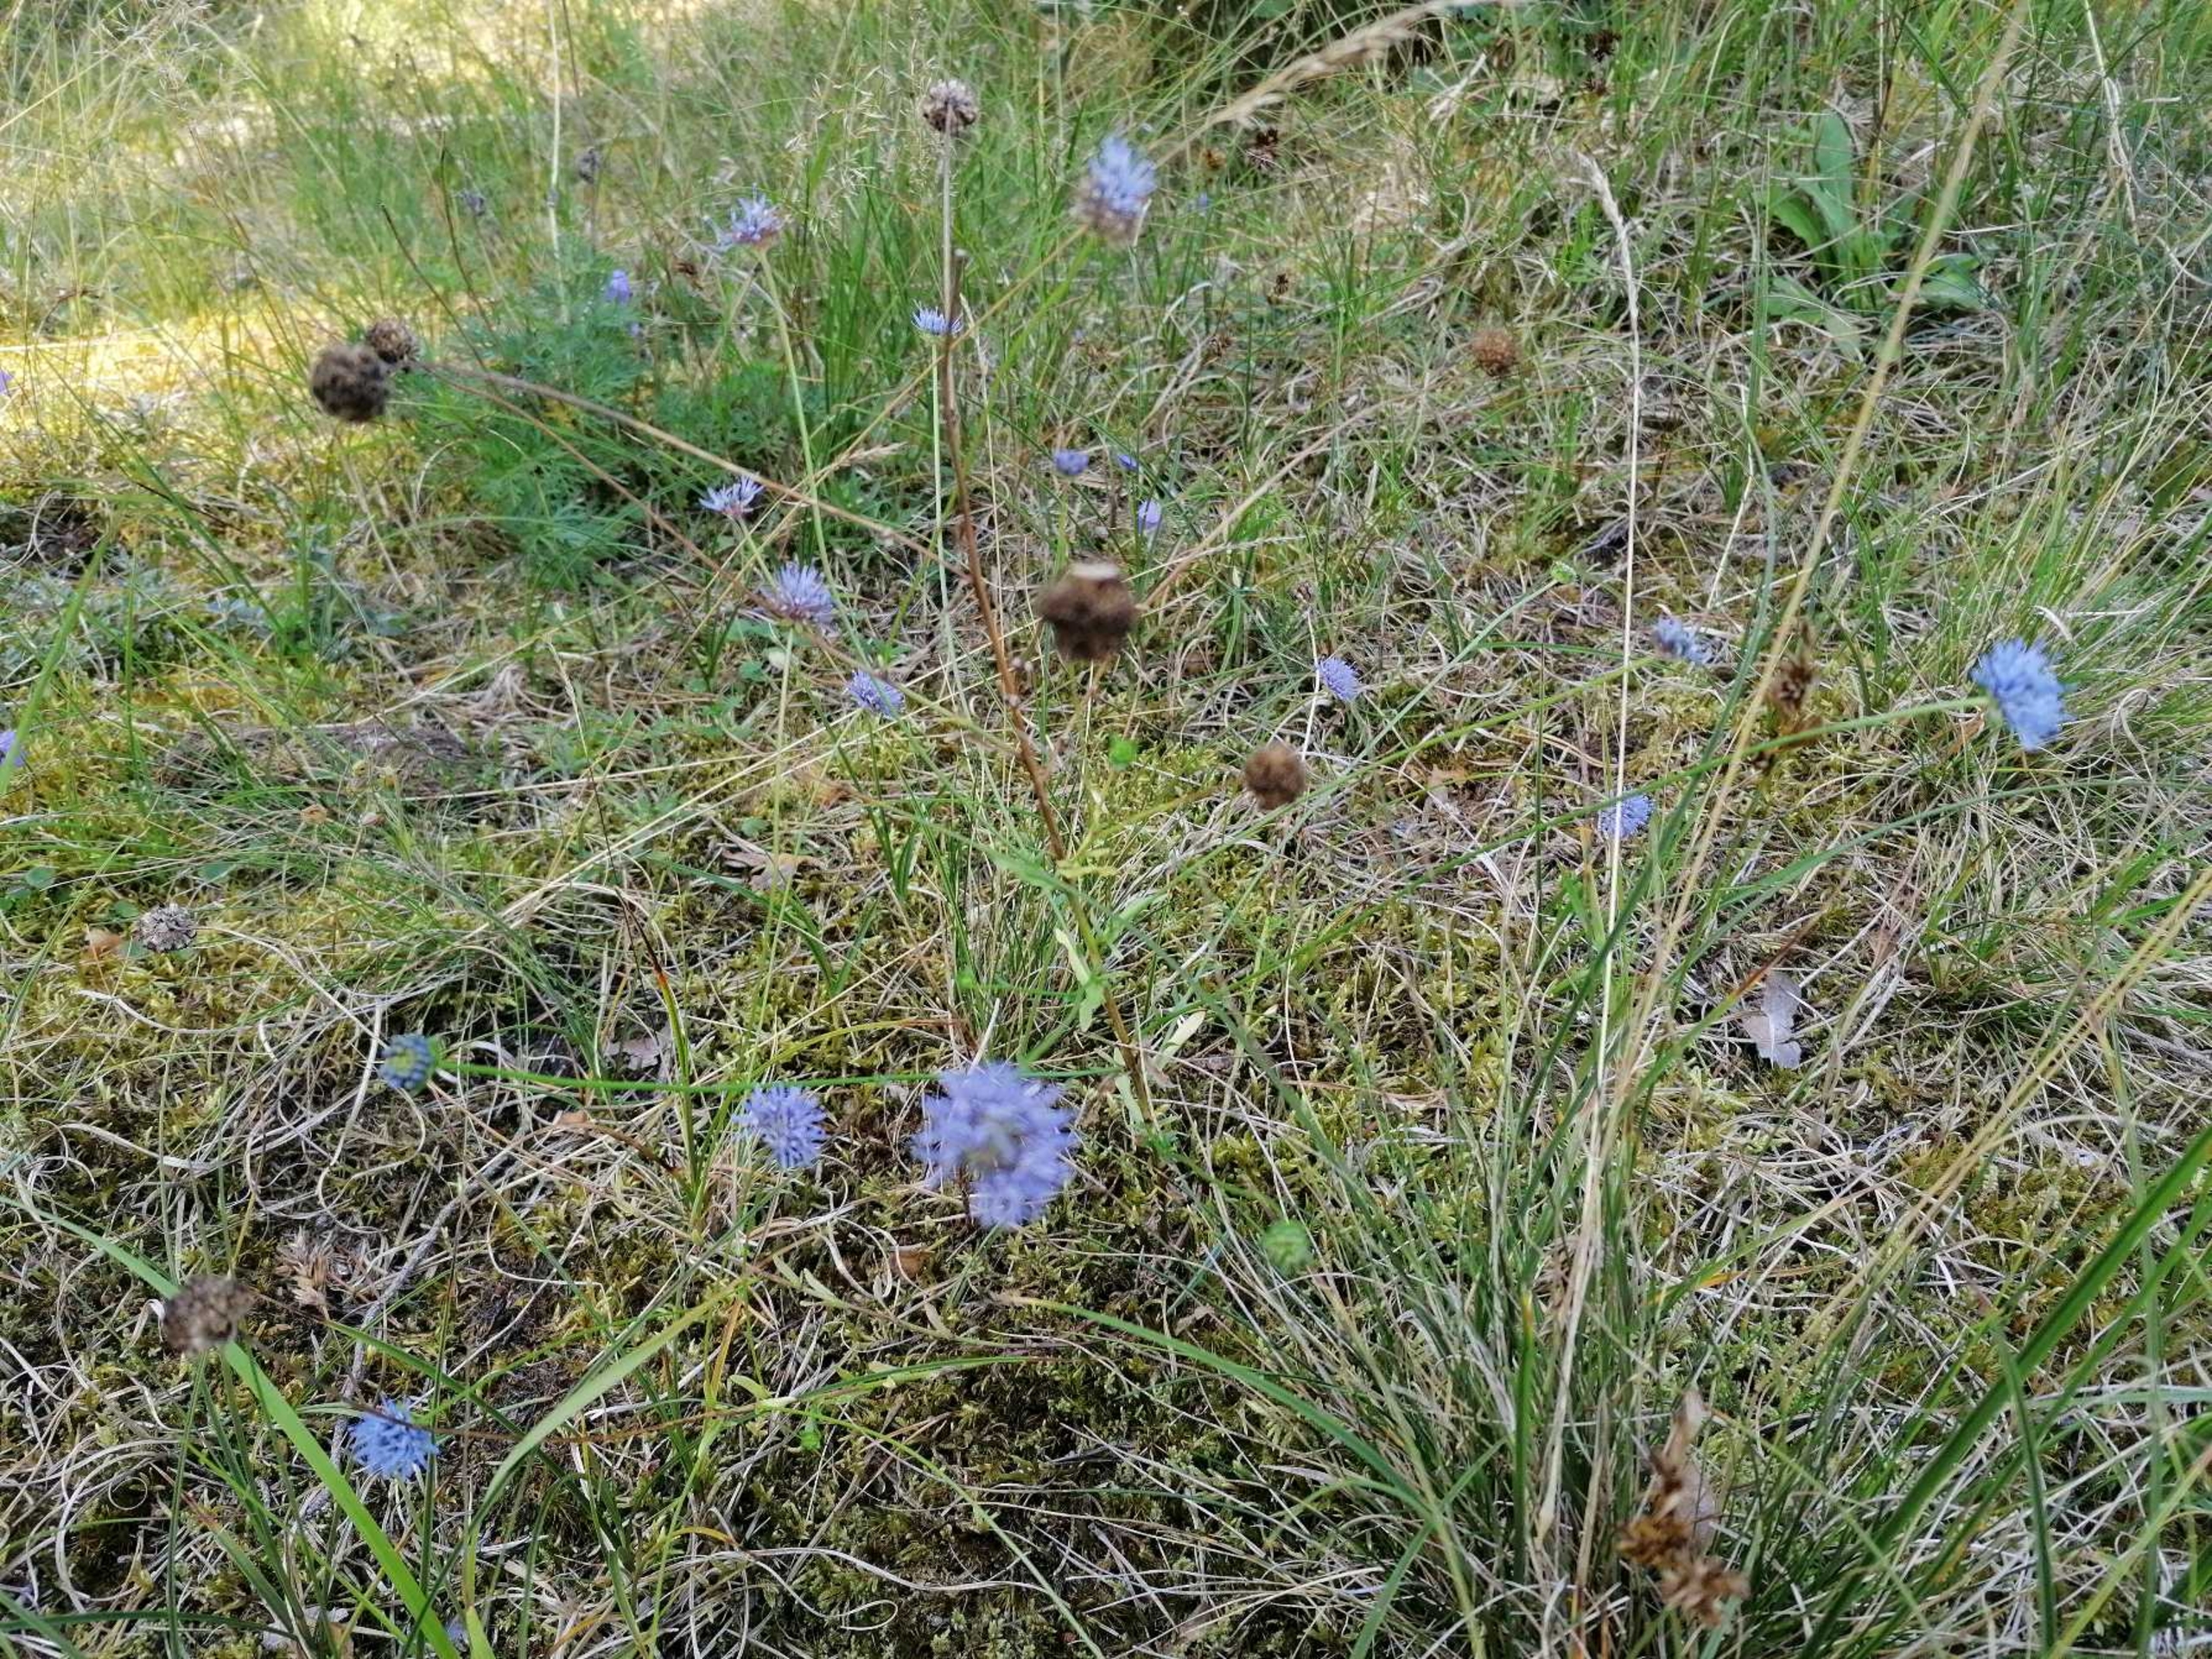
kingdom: Plantae
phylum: Tracheophyta
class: Magnoliopsida
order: Asterales
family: Campanulaceae
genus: Jasione
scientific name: Jasione montana
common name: Blåmunke
